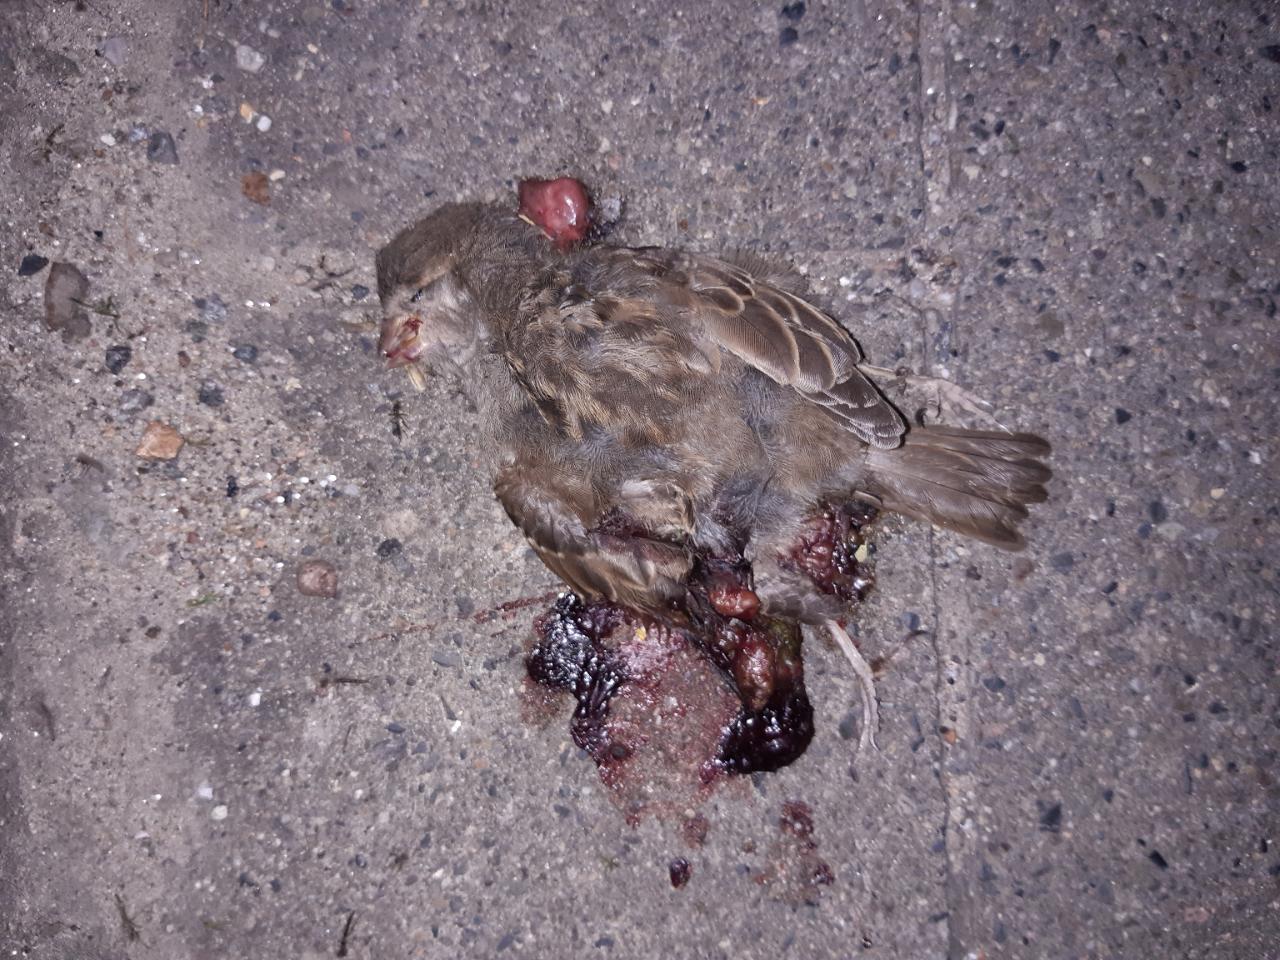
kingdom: Animalia
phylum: Chordata
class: Aves
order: Passeriformes
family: Passeridae
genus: Passer
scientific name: Passer domesticus
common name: House sparrow
